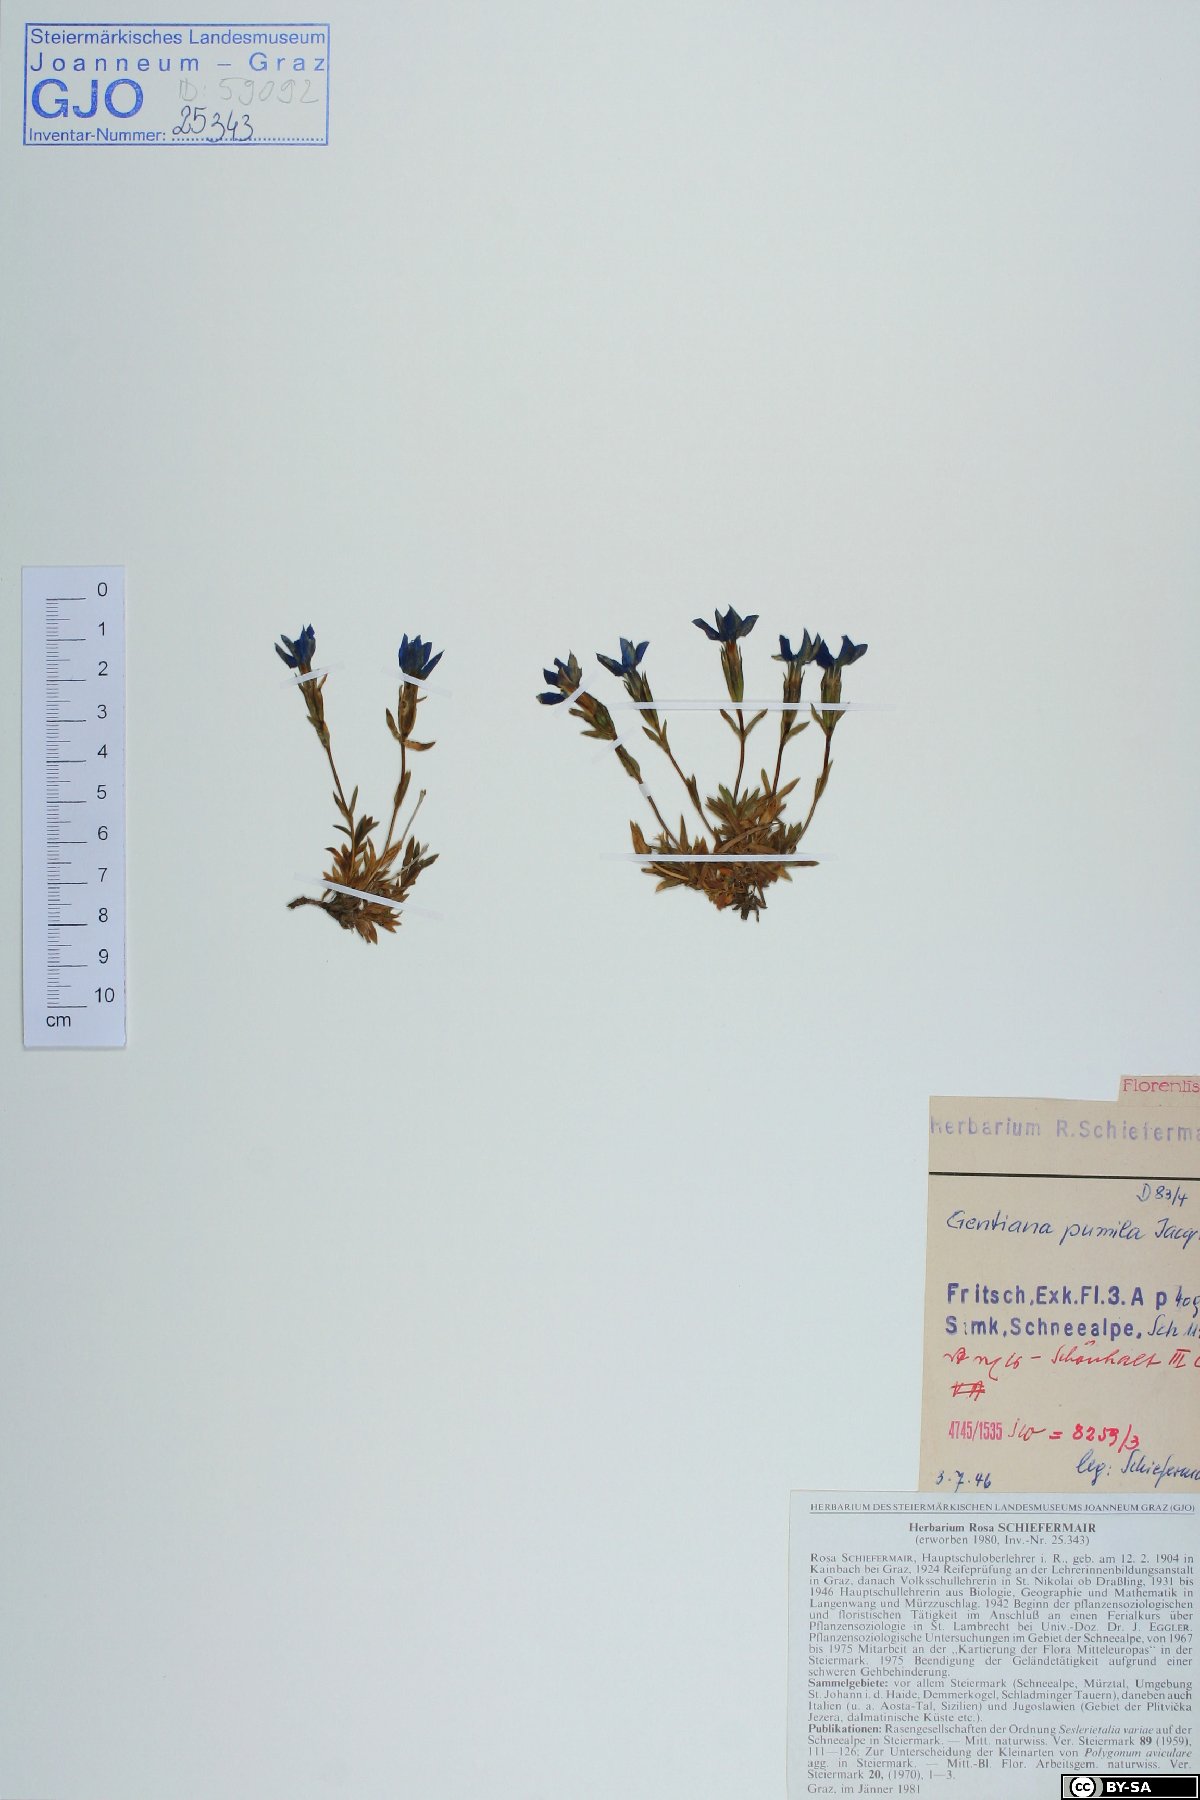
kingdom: Plantae
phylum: Tracheophyta
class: Magnoliopsida
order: Gentianales
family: Gentianaceae
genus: Gentiana
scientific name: Gentiana pumila
